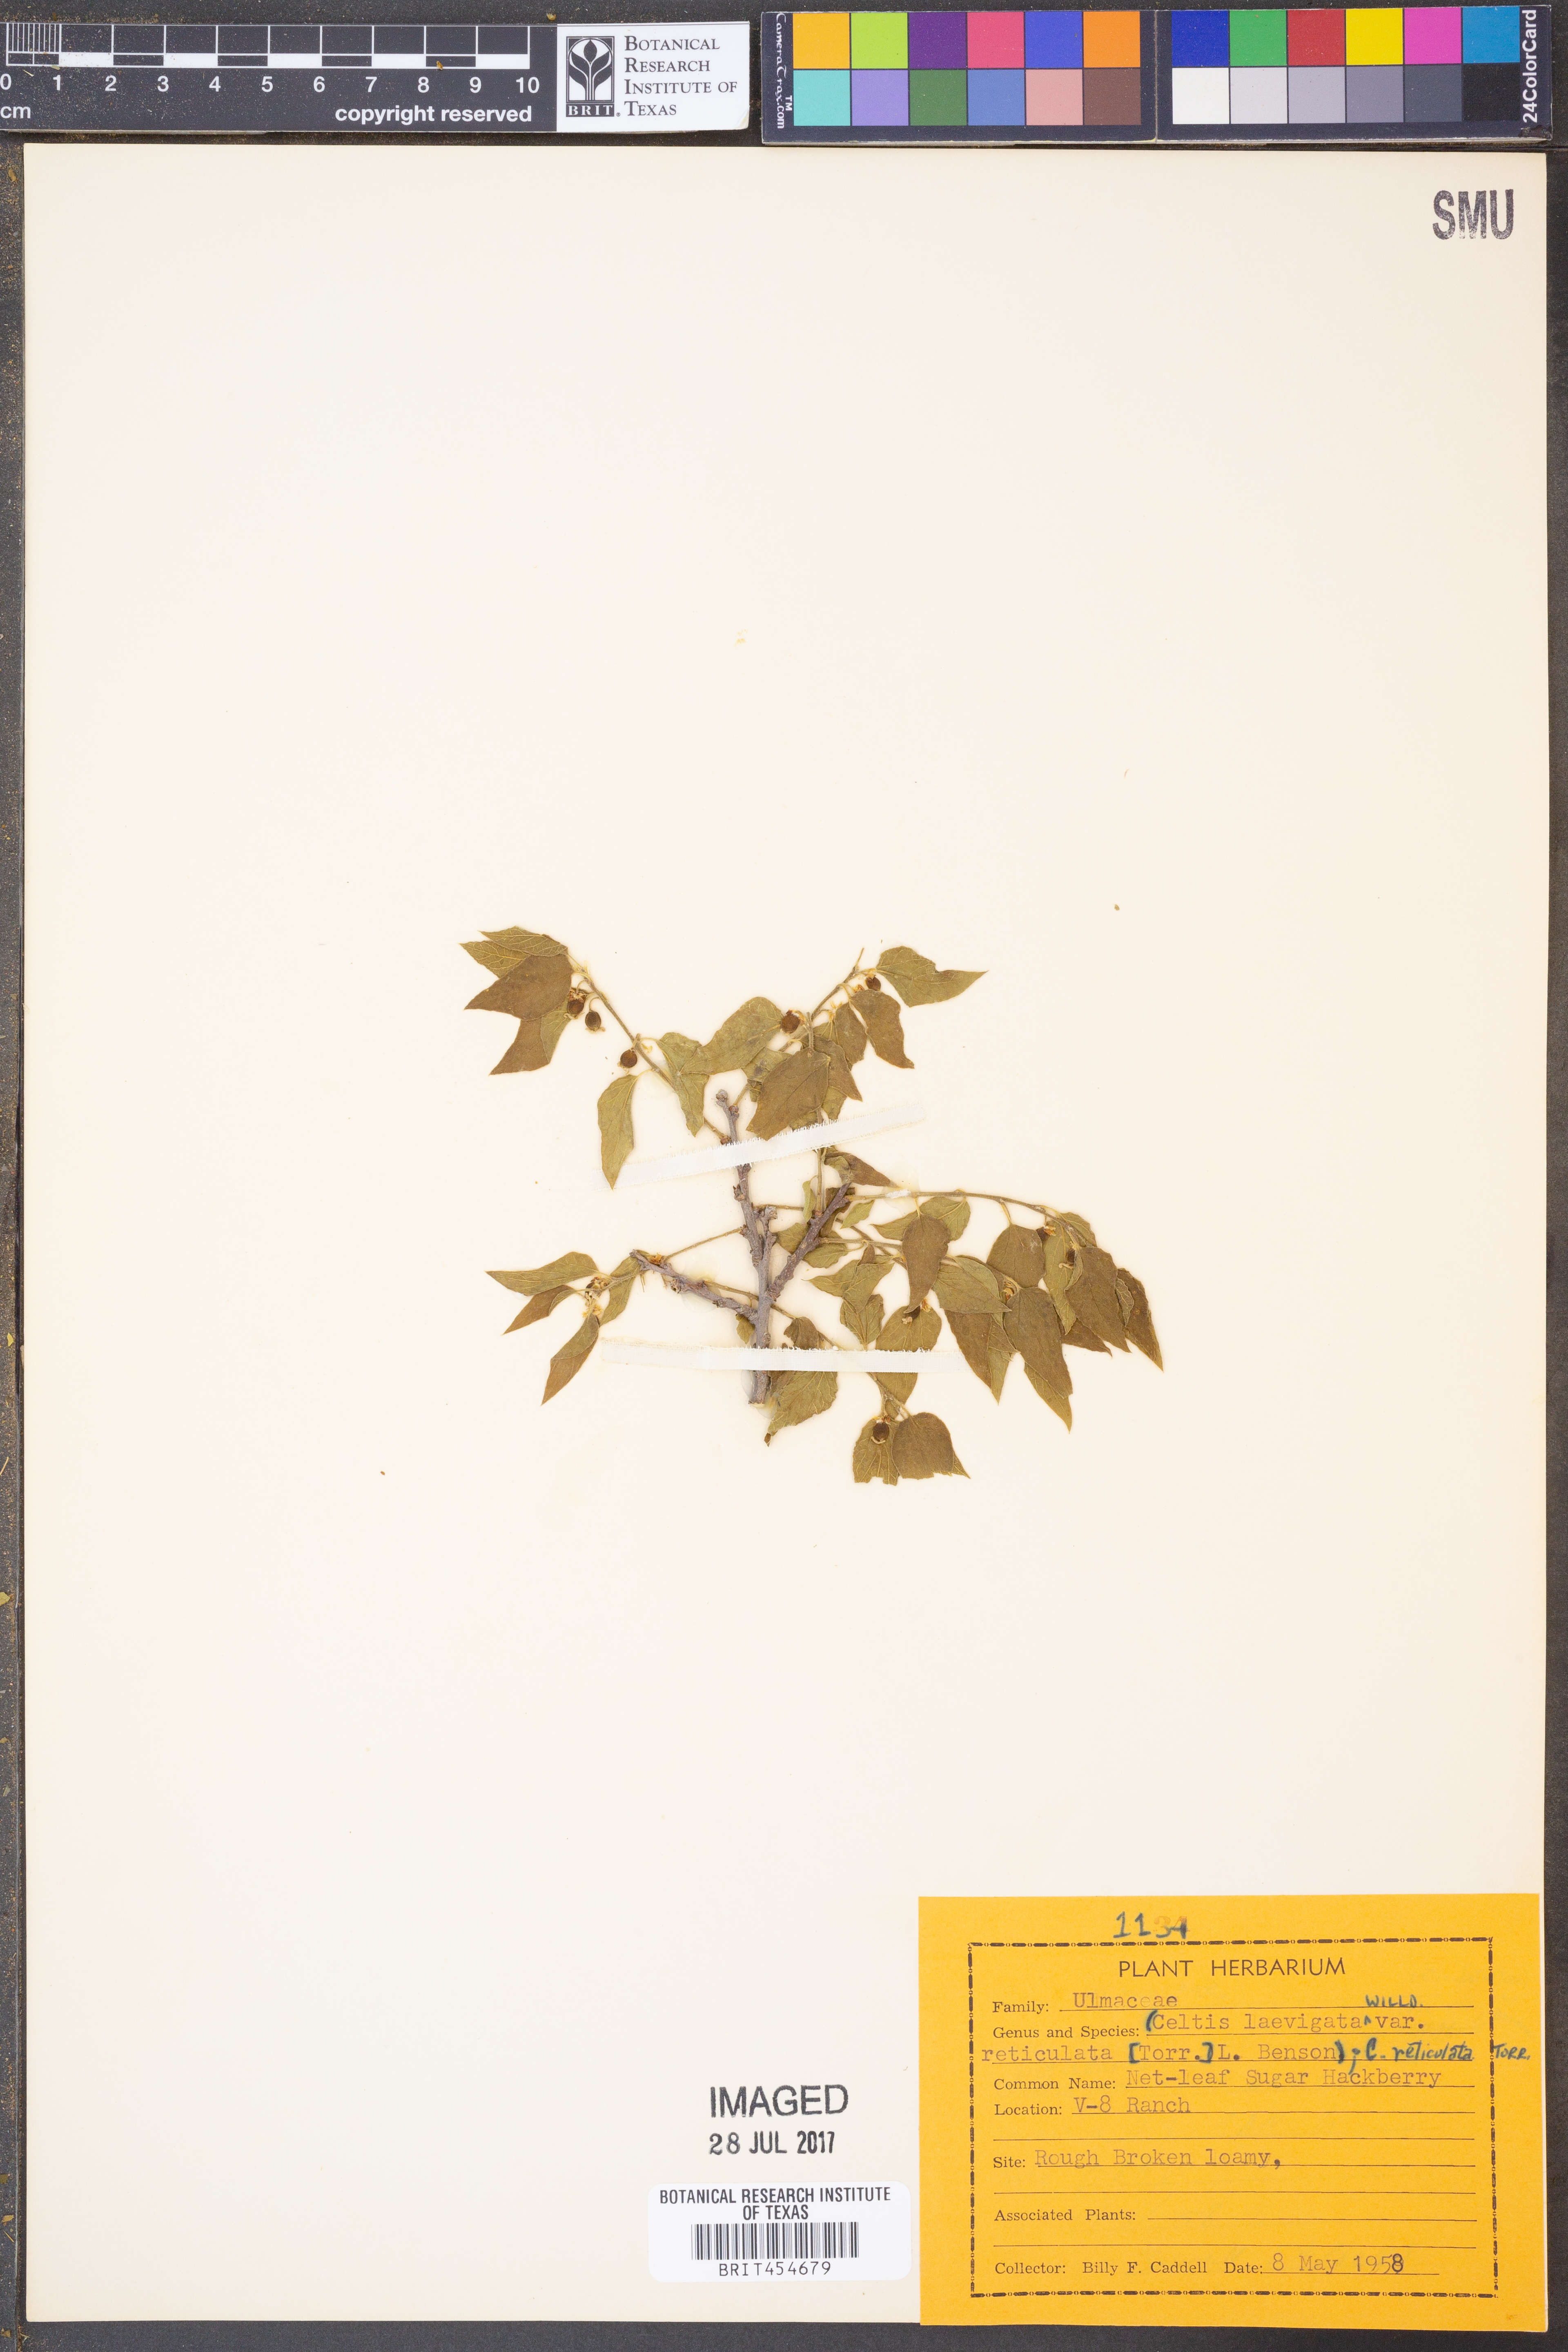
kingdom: Plantae
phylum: Tracheophyta
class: Magnoliopsida
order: Rosales
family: Cannabaceae
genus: Celtis
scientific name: Celtis reticulata
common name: Netleaf hackberry
